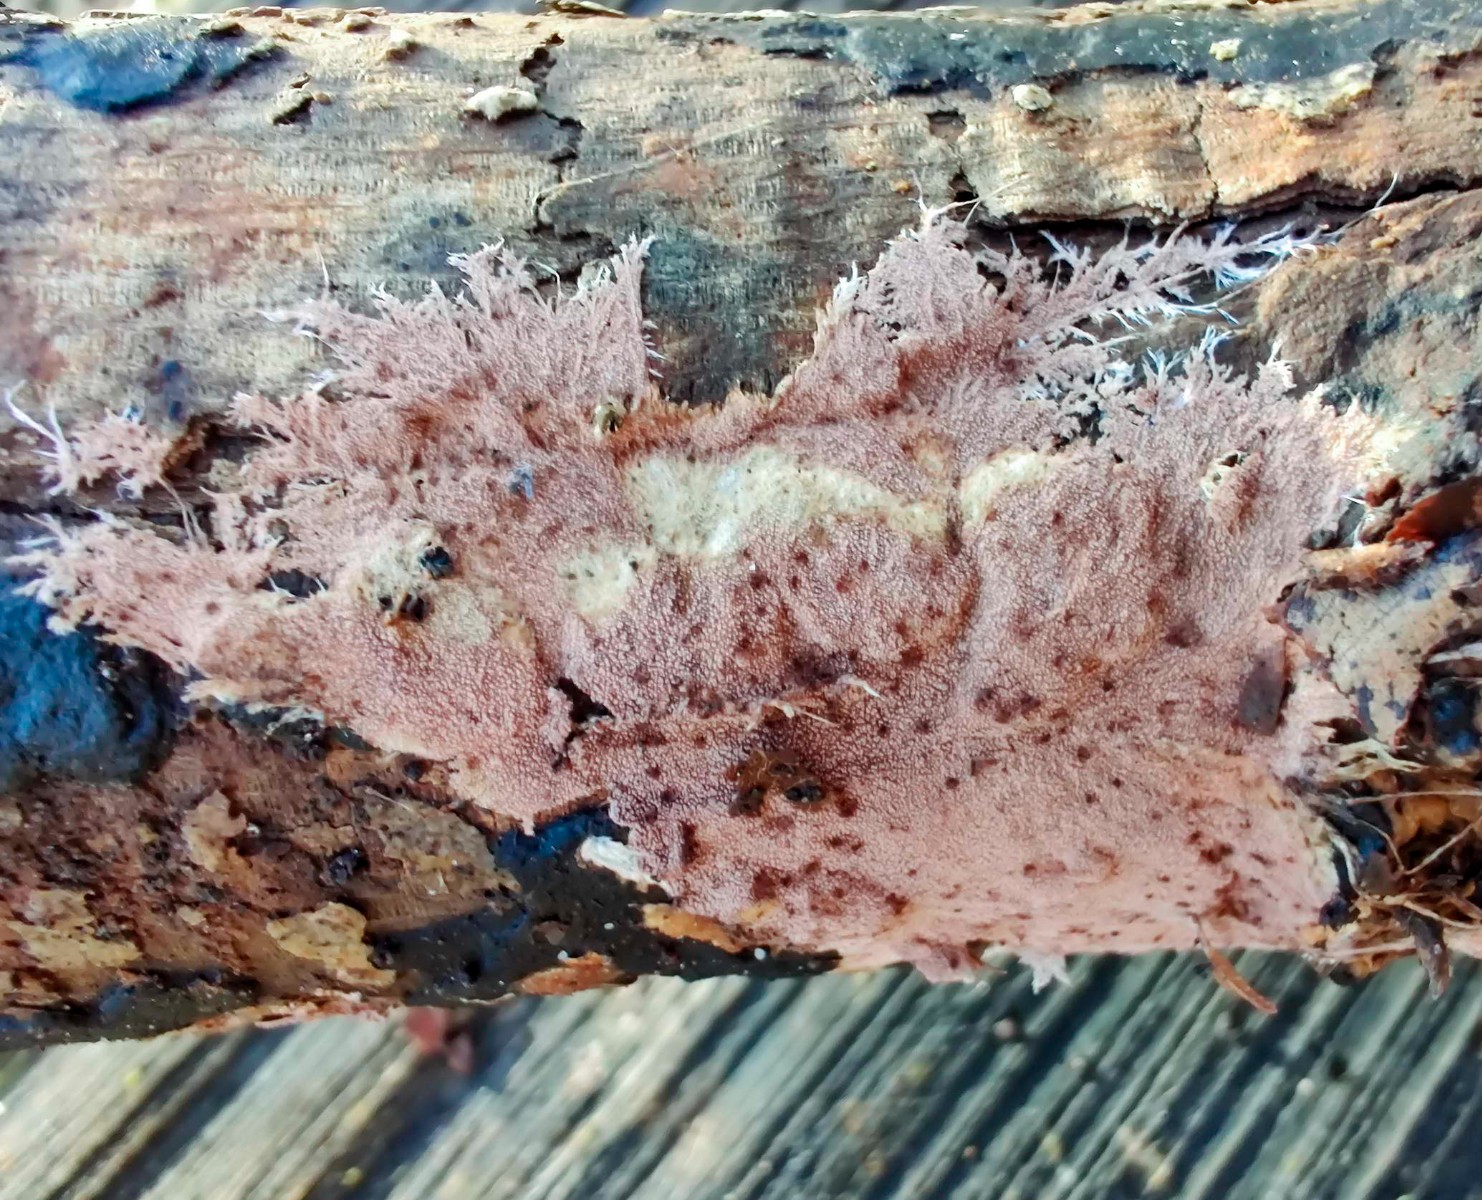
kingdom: Fungi
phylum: Basidiomycota
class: Agaricomycetes
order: Polyporales
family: Steccherinaceae
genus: Steccherinum
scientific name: Steccherinum fimbriatum
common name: trådet skønpig
